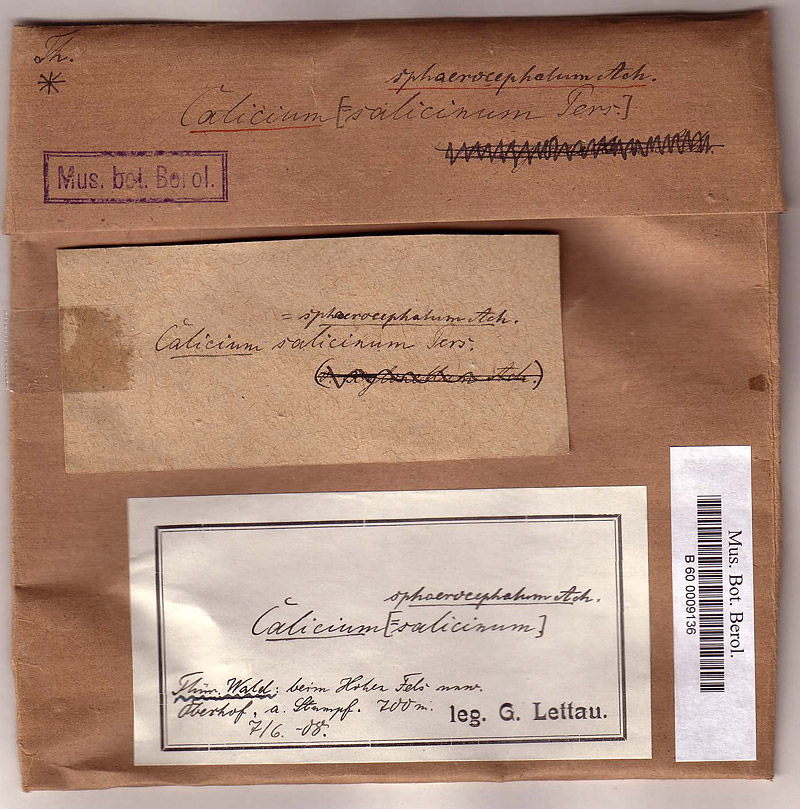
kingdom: Fungi
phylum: Ascomycota
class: Lecanoromycetes
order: Caliciales
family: Caliciaceae
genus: Calicium
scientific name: Calicium lenticulare
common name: Candle-wax stubble lichen
